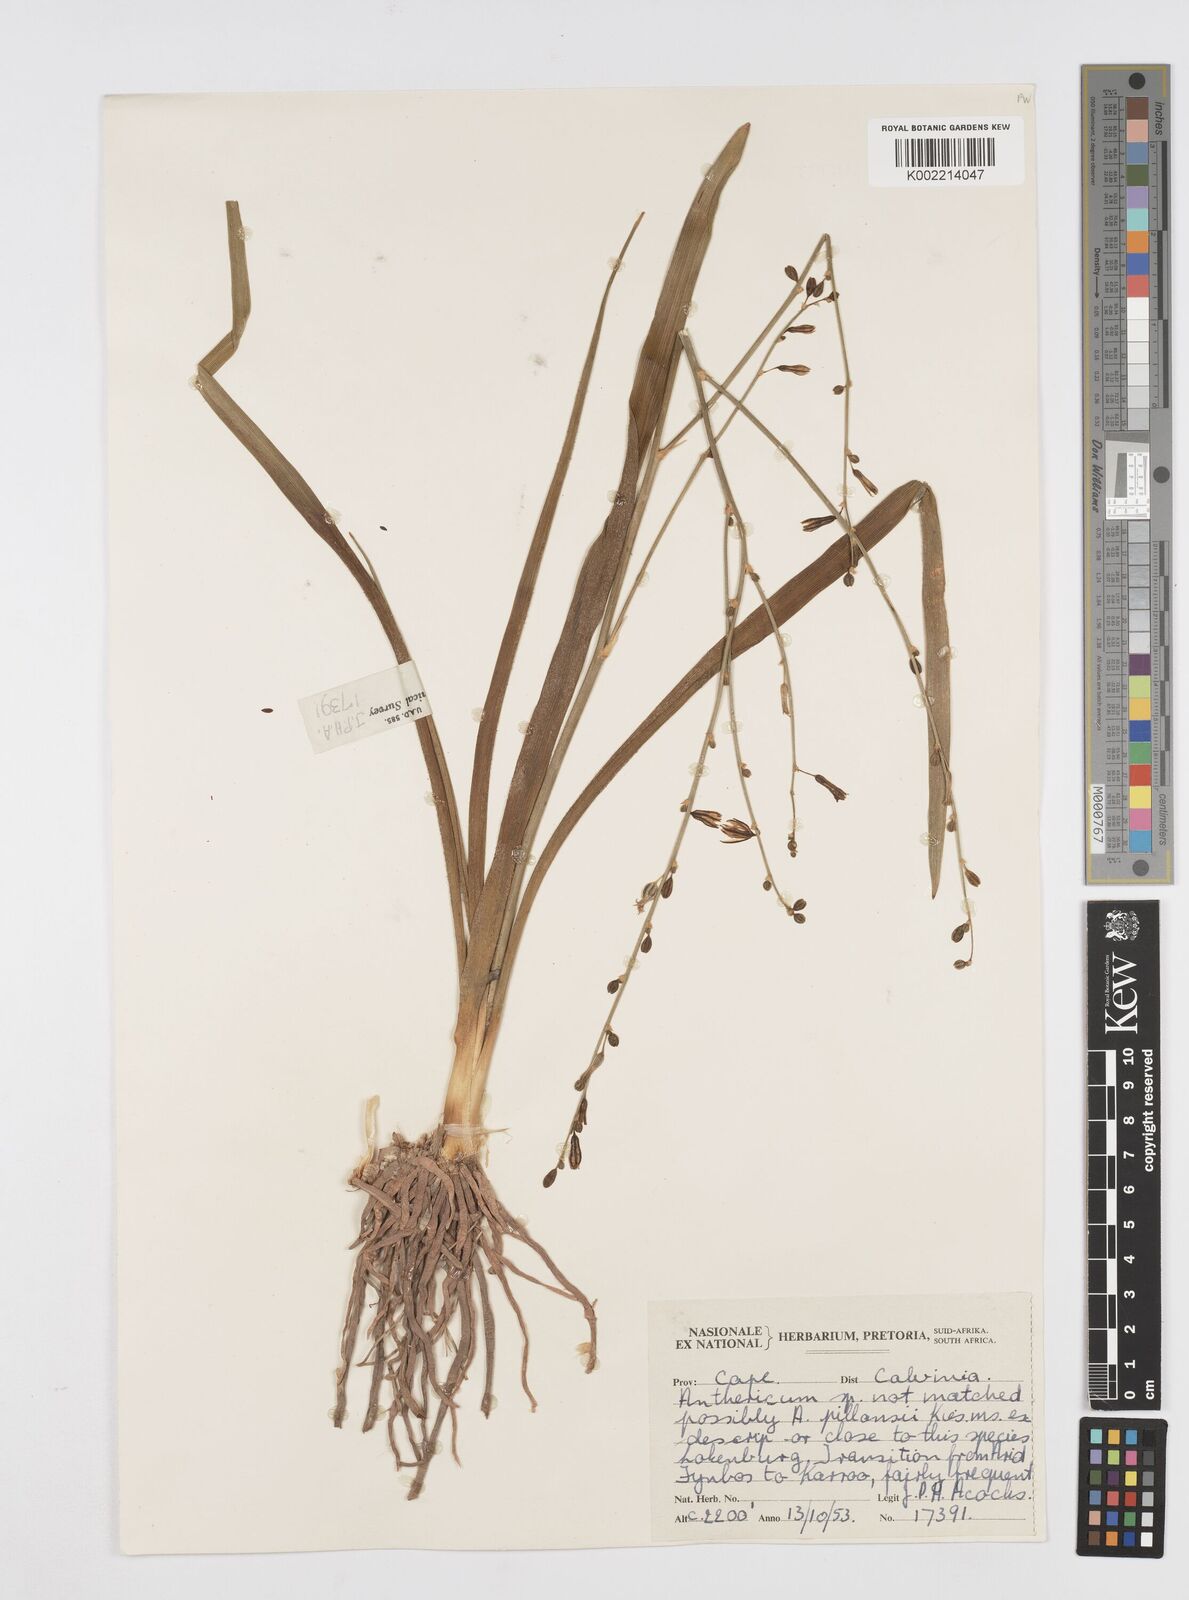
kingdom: Plantae
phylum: Tracheophyta
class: Liliopsida
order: Asparagales
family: Asphodelaceae
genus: Trachyandra
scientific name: Trachyandra
